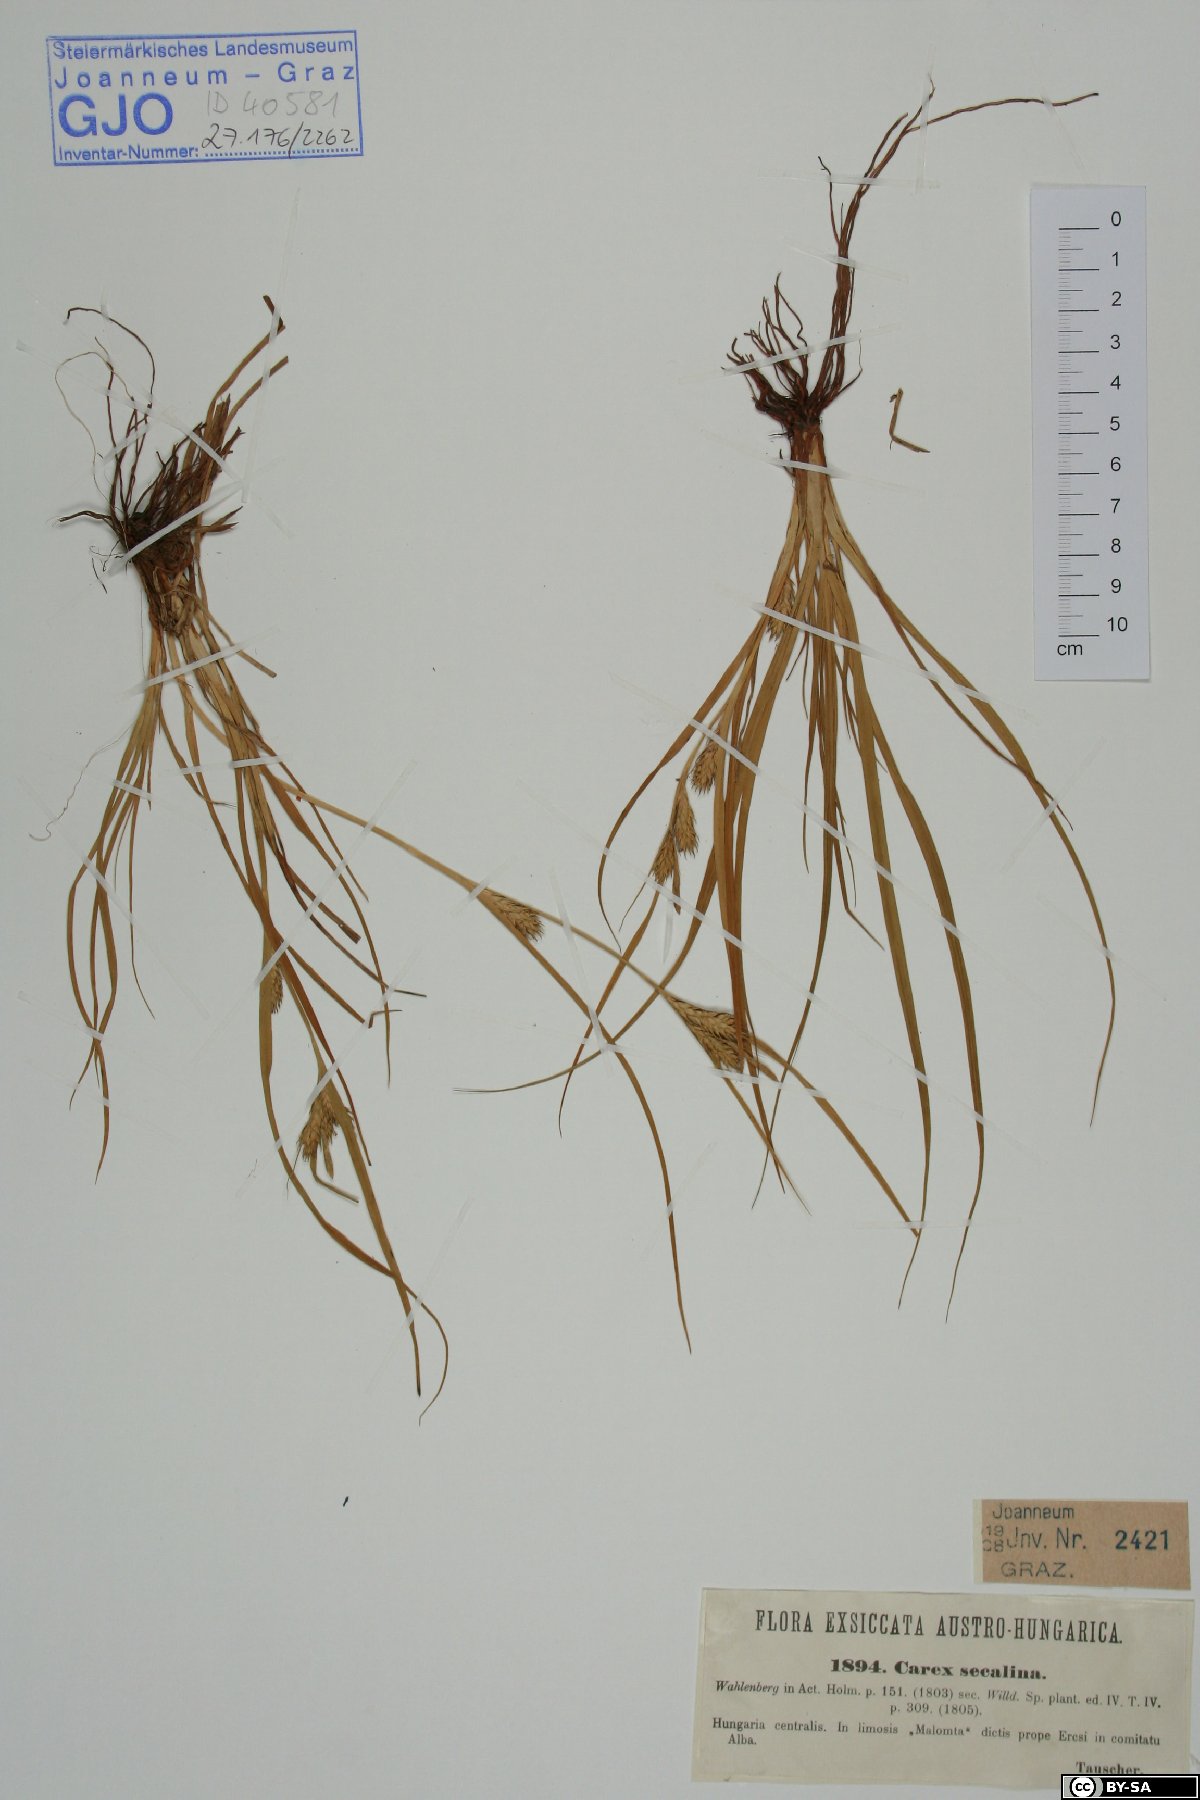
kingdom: Plantae
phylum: Tracheophyta
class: Liliopsida
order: Poales
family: Cyperaceae
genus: Carex
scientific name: Carex secalina
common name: Rye sedge
